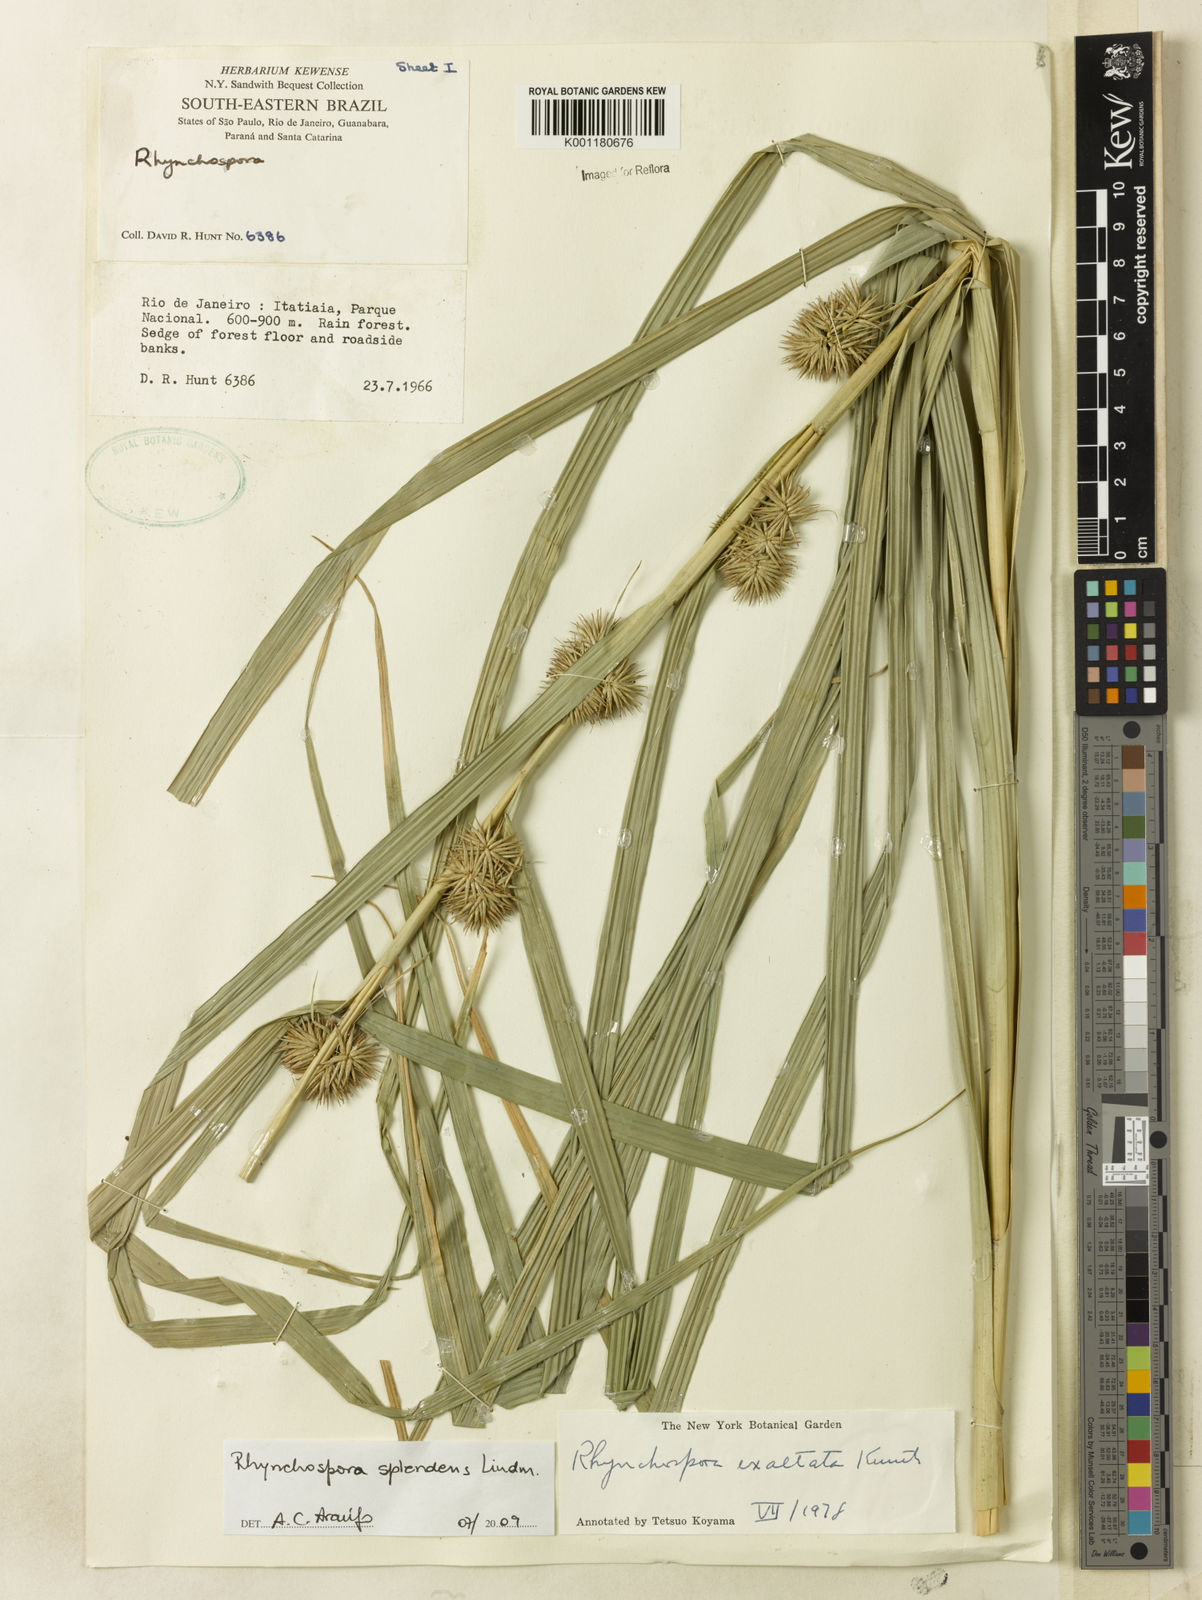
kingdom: Plantae
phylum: Tracheophyta
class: Liliopsida
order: Poales
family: Cyperaceae
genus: Rhynchospora
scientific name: Rhynchospora splendens
